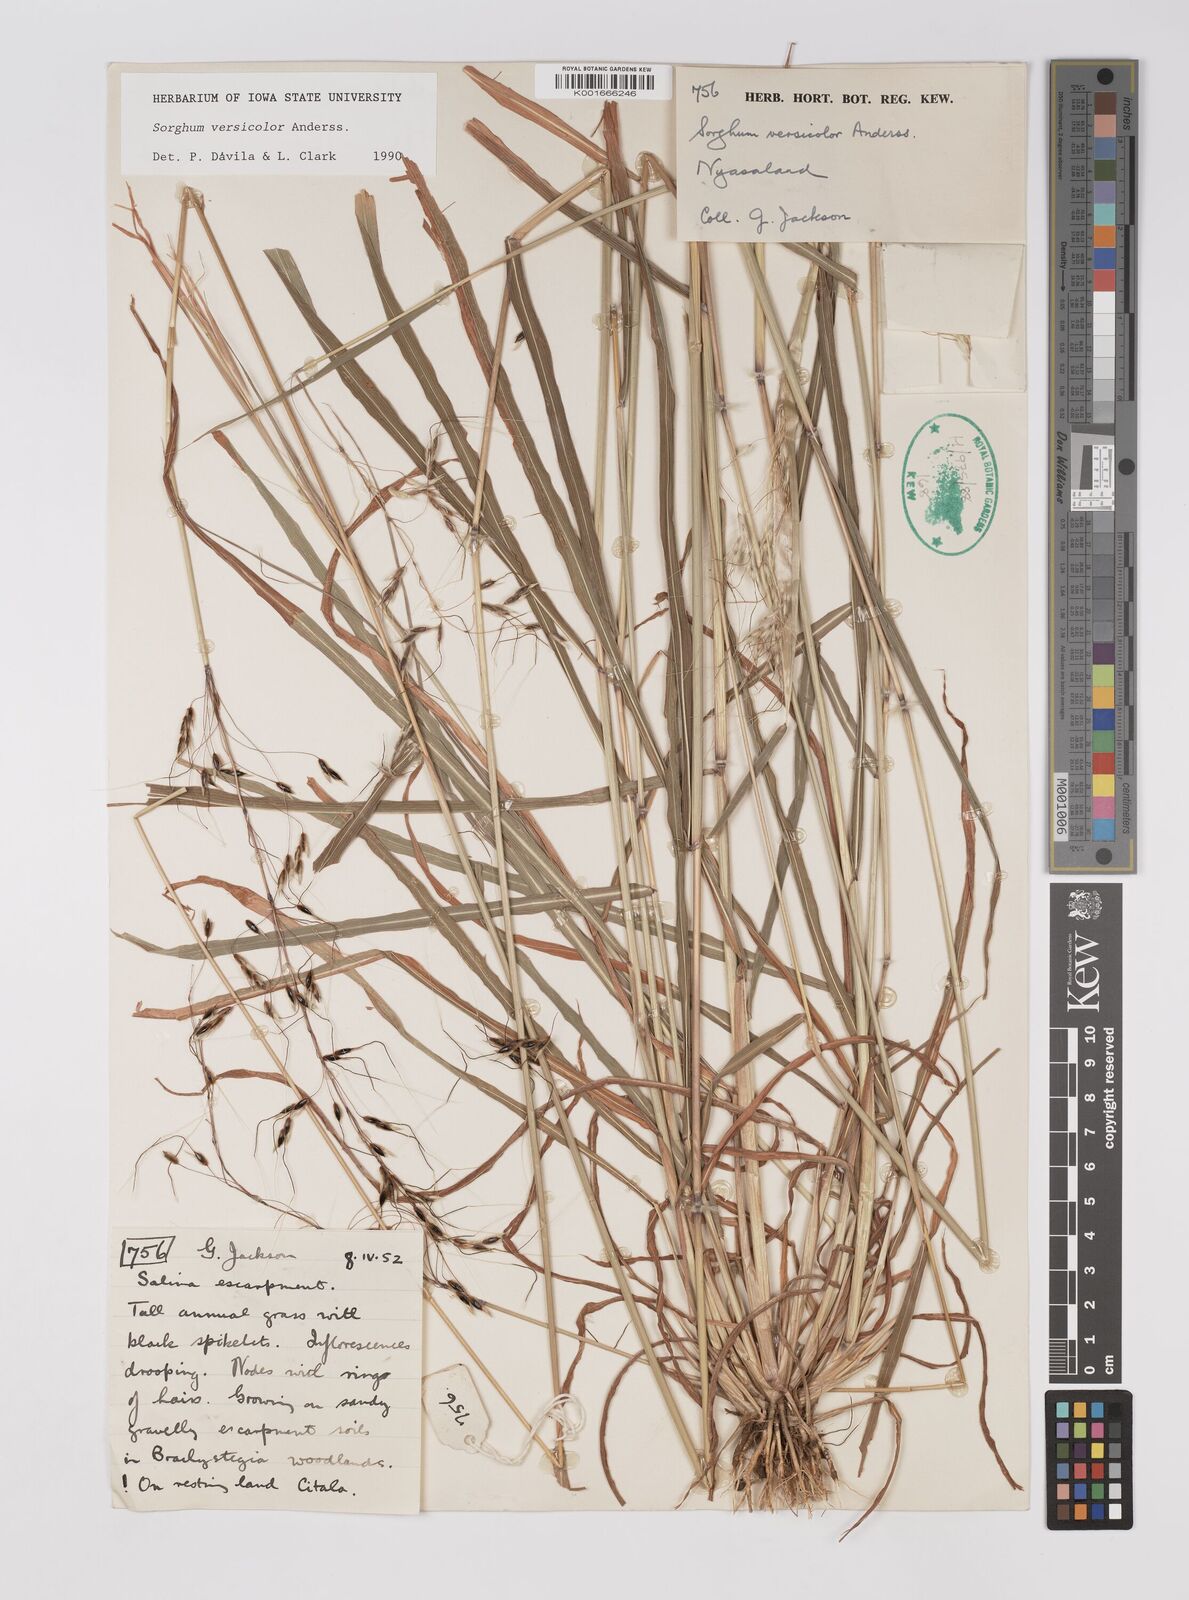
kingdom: Plantae
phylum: Tracheophyta
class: Liliopsida
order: Poales
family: Poaceae
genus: Sarga
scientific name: Sarga versicolor
